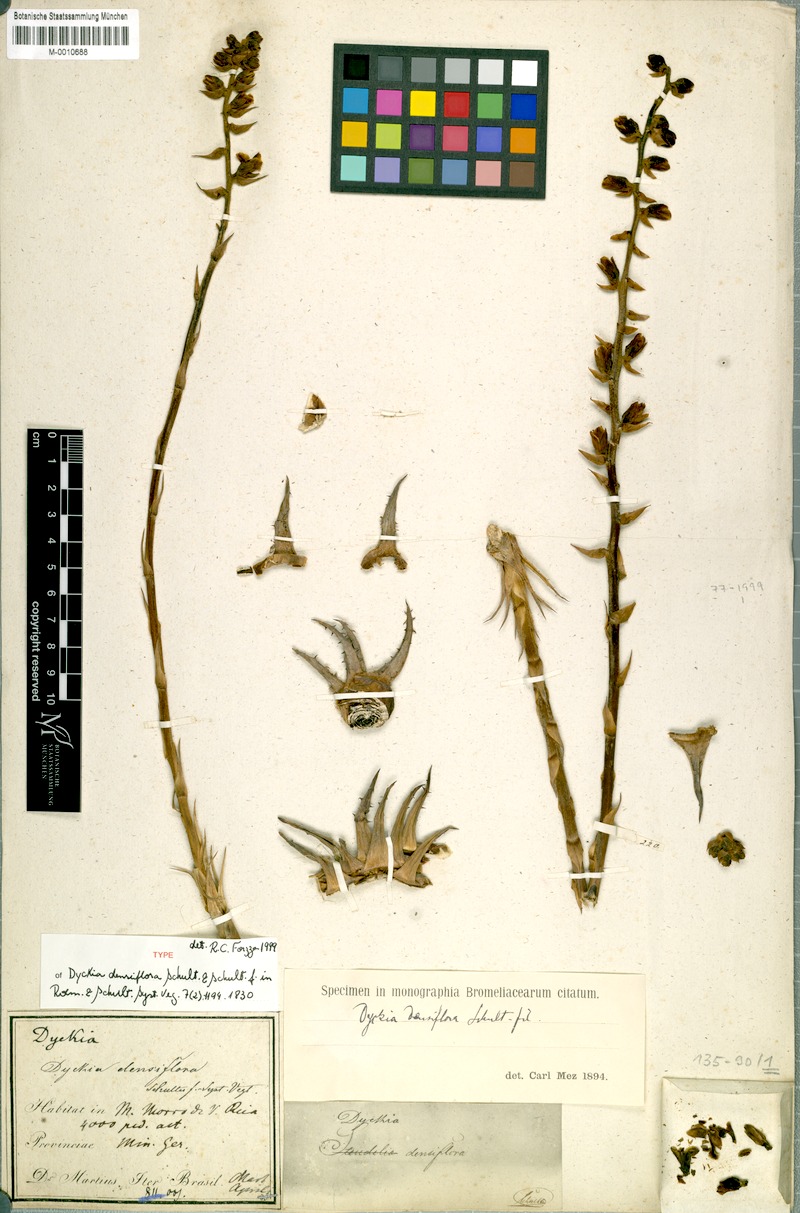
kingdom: Plantae
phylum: Tracheophyta
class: Liliopsida
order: Poales
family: Bromeliaceae
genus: Dyckia
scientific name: Dyckia densiflora
